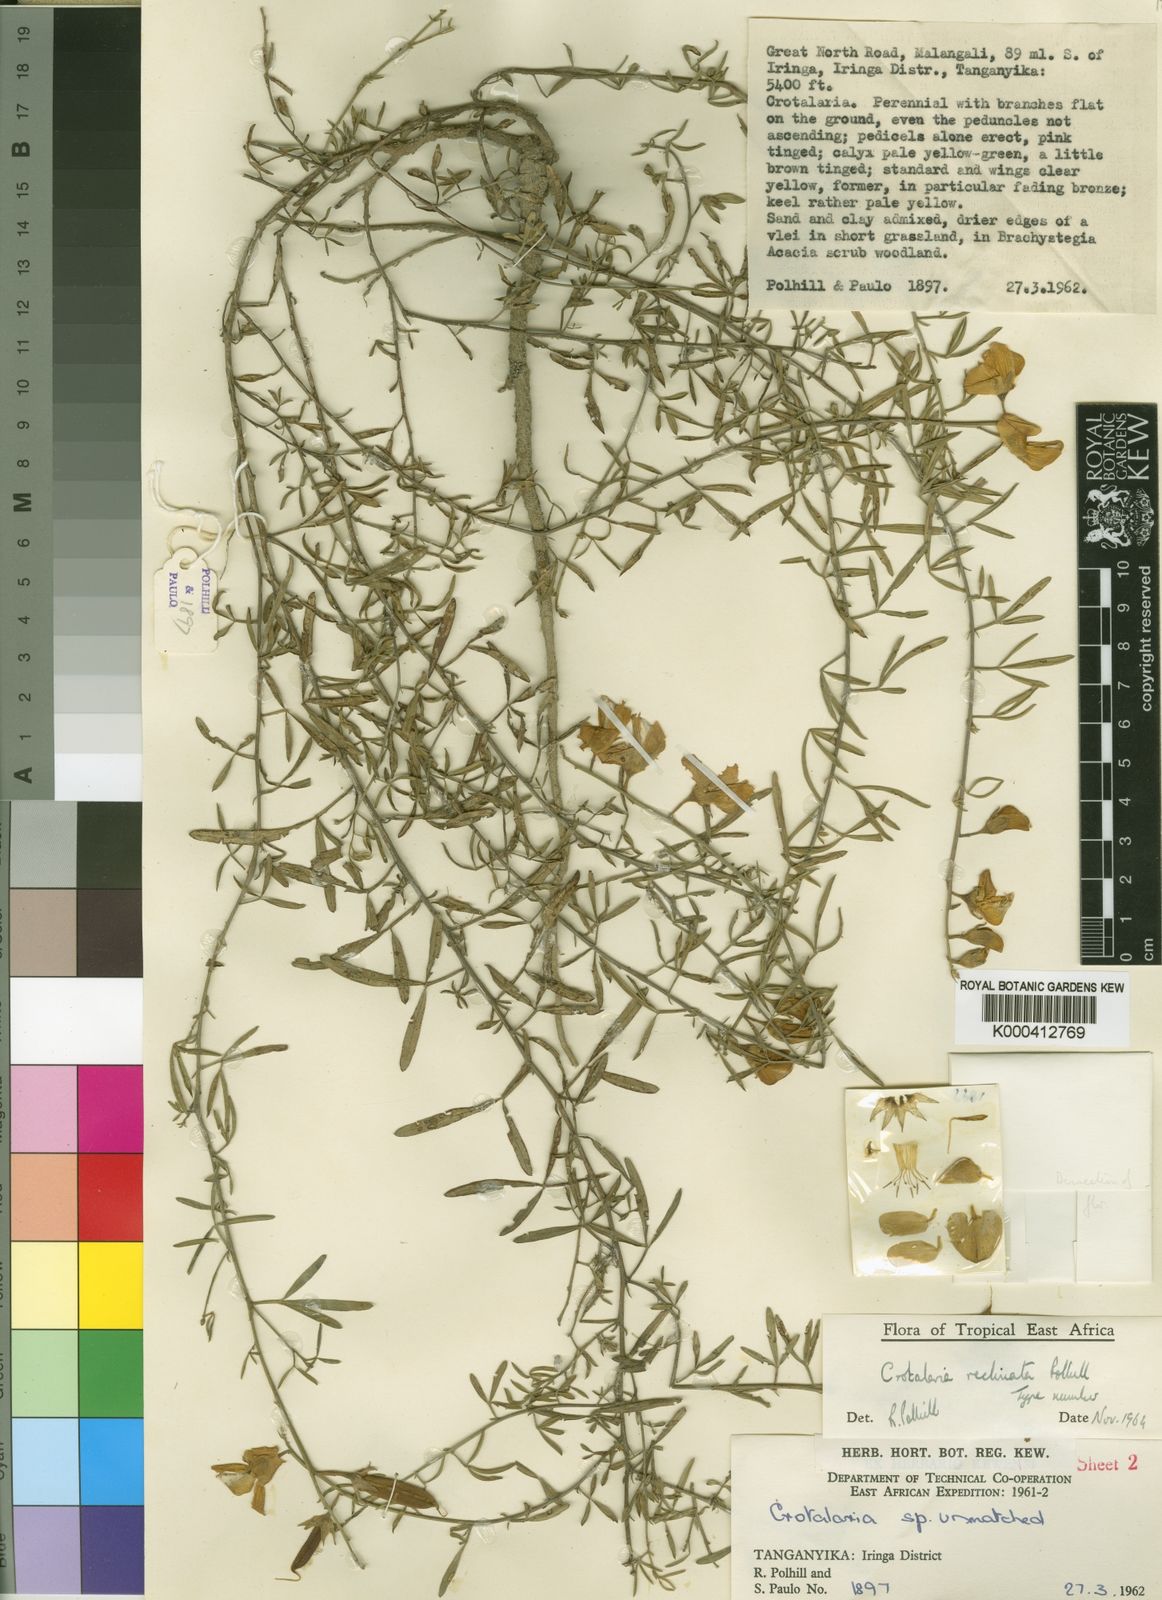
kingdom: Plantae
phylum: Tracheophyta
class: Magnoliopsida
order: Fabales
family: Fabaceae
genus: Crotalaria
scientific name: Crotalaria reclinata
